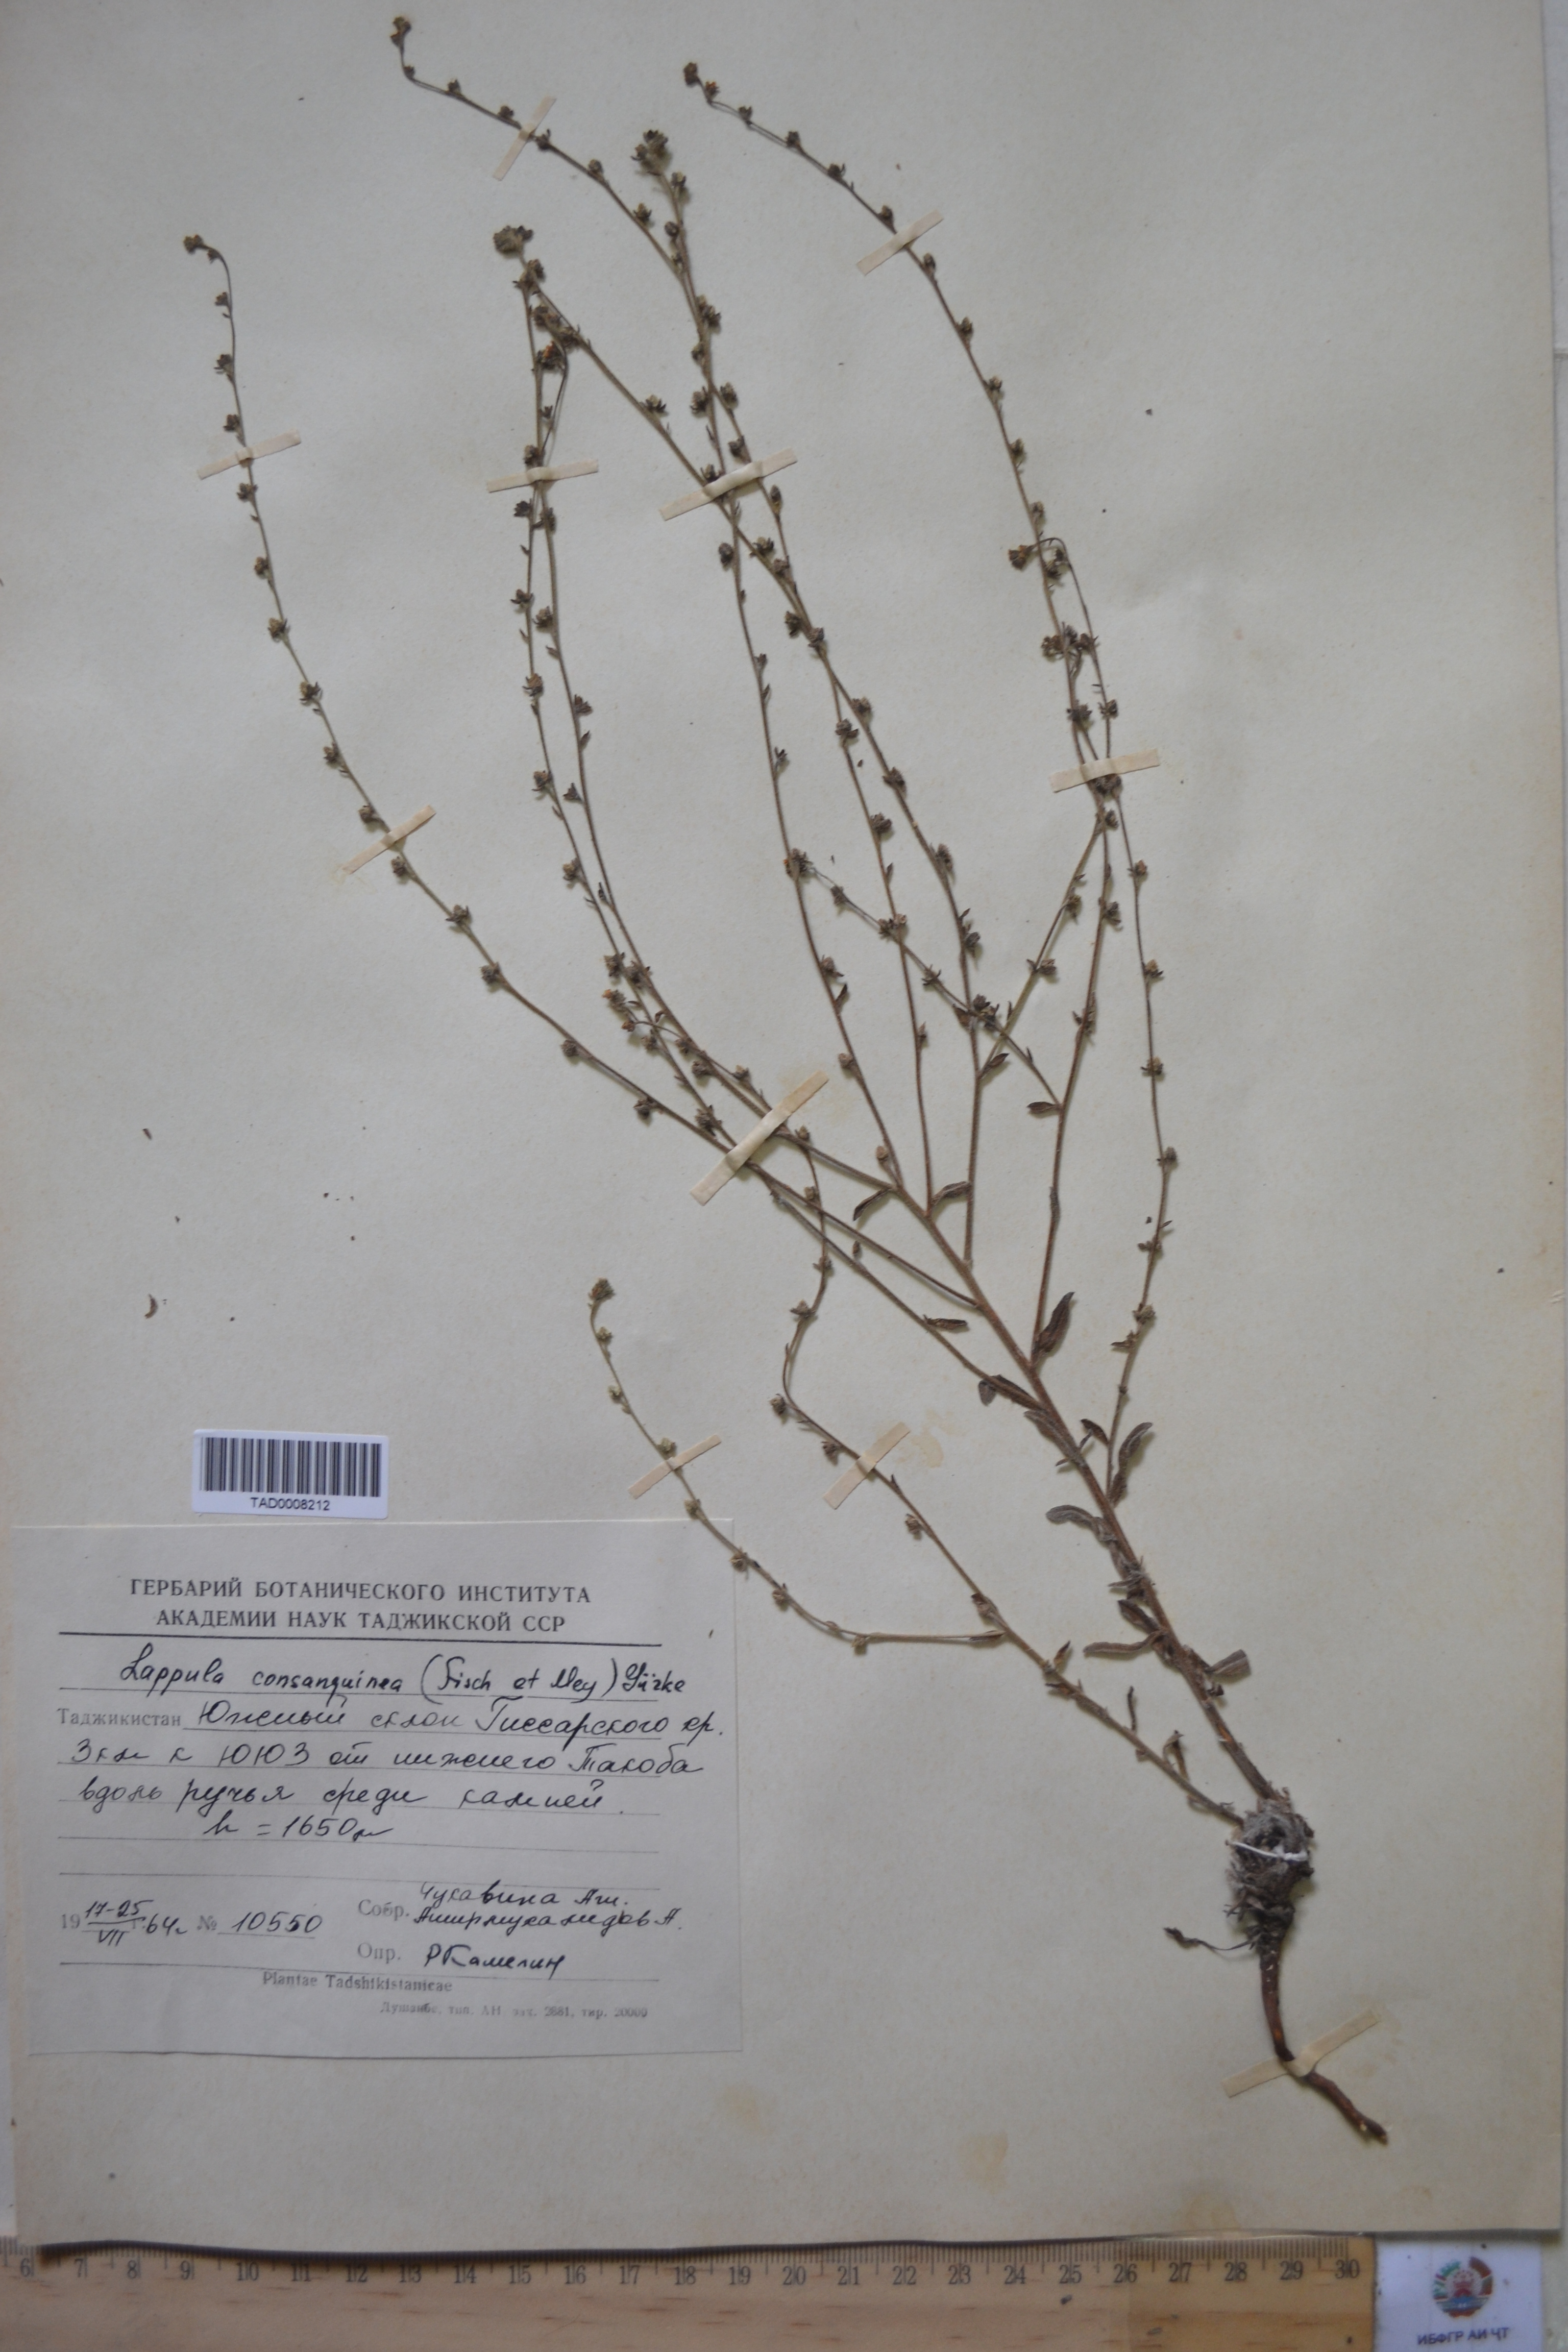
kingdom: Plantae
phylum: Tracheophyta
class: Magnoliopsida
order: Boraginales
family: Boraginaceae
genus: Lappula
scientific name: Lappula squarrosa
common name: European stickseed
